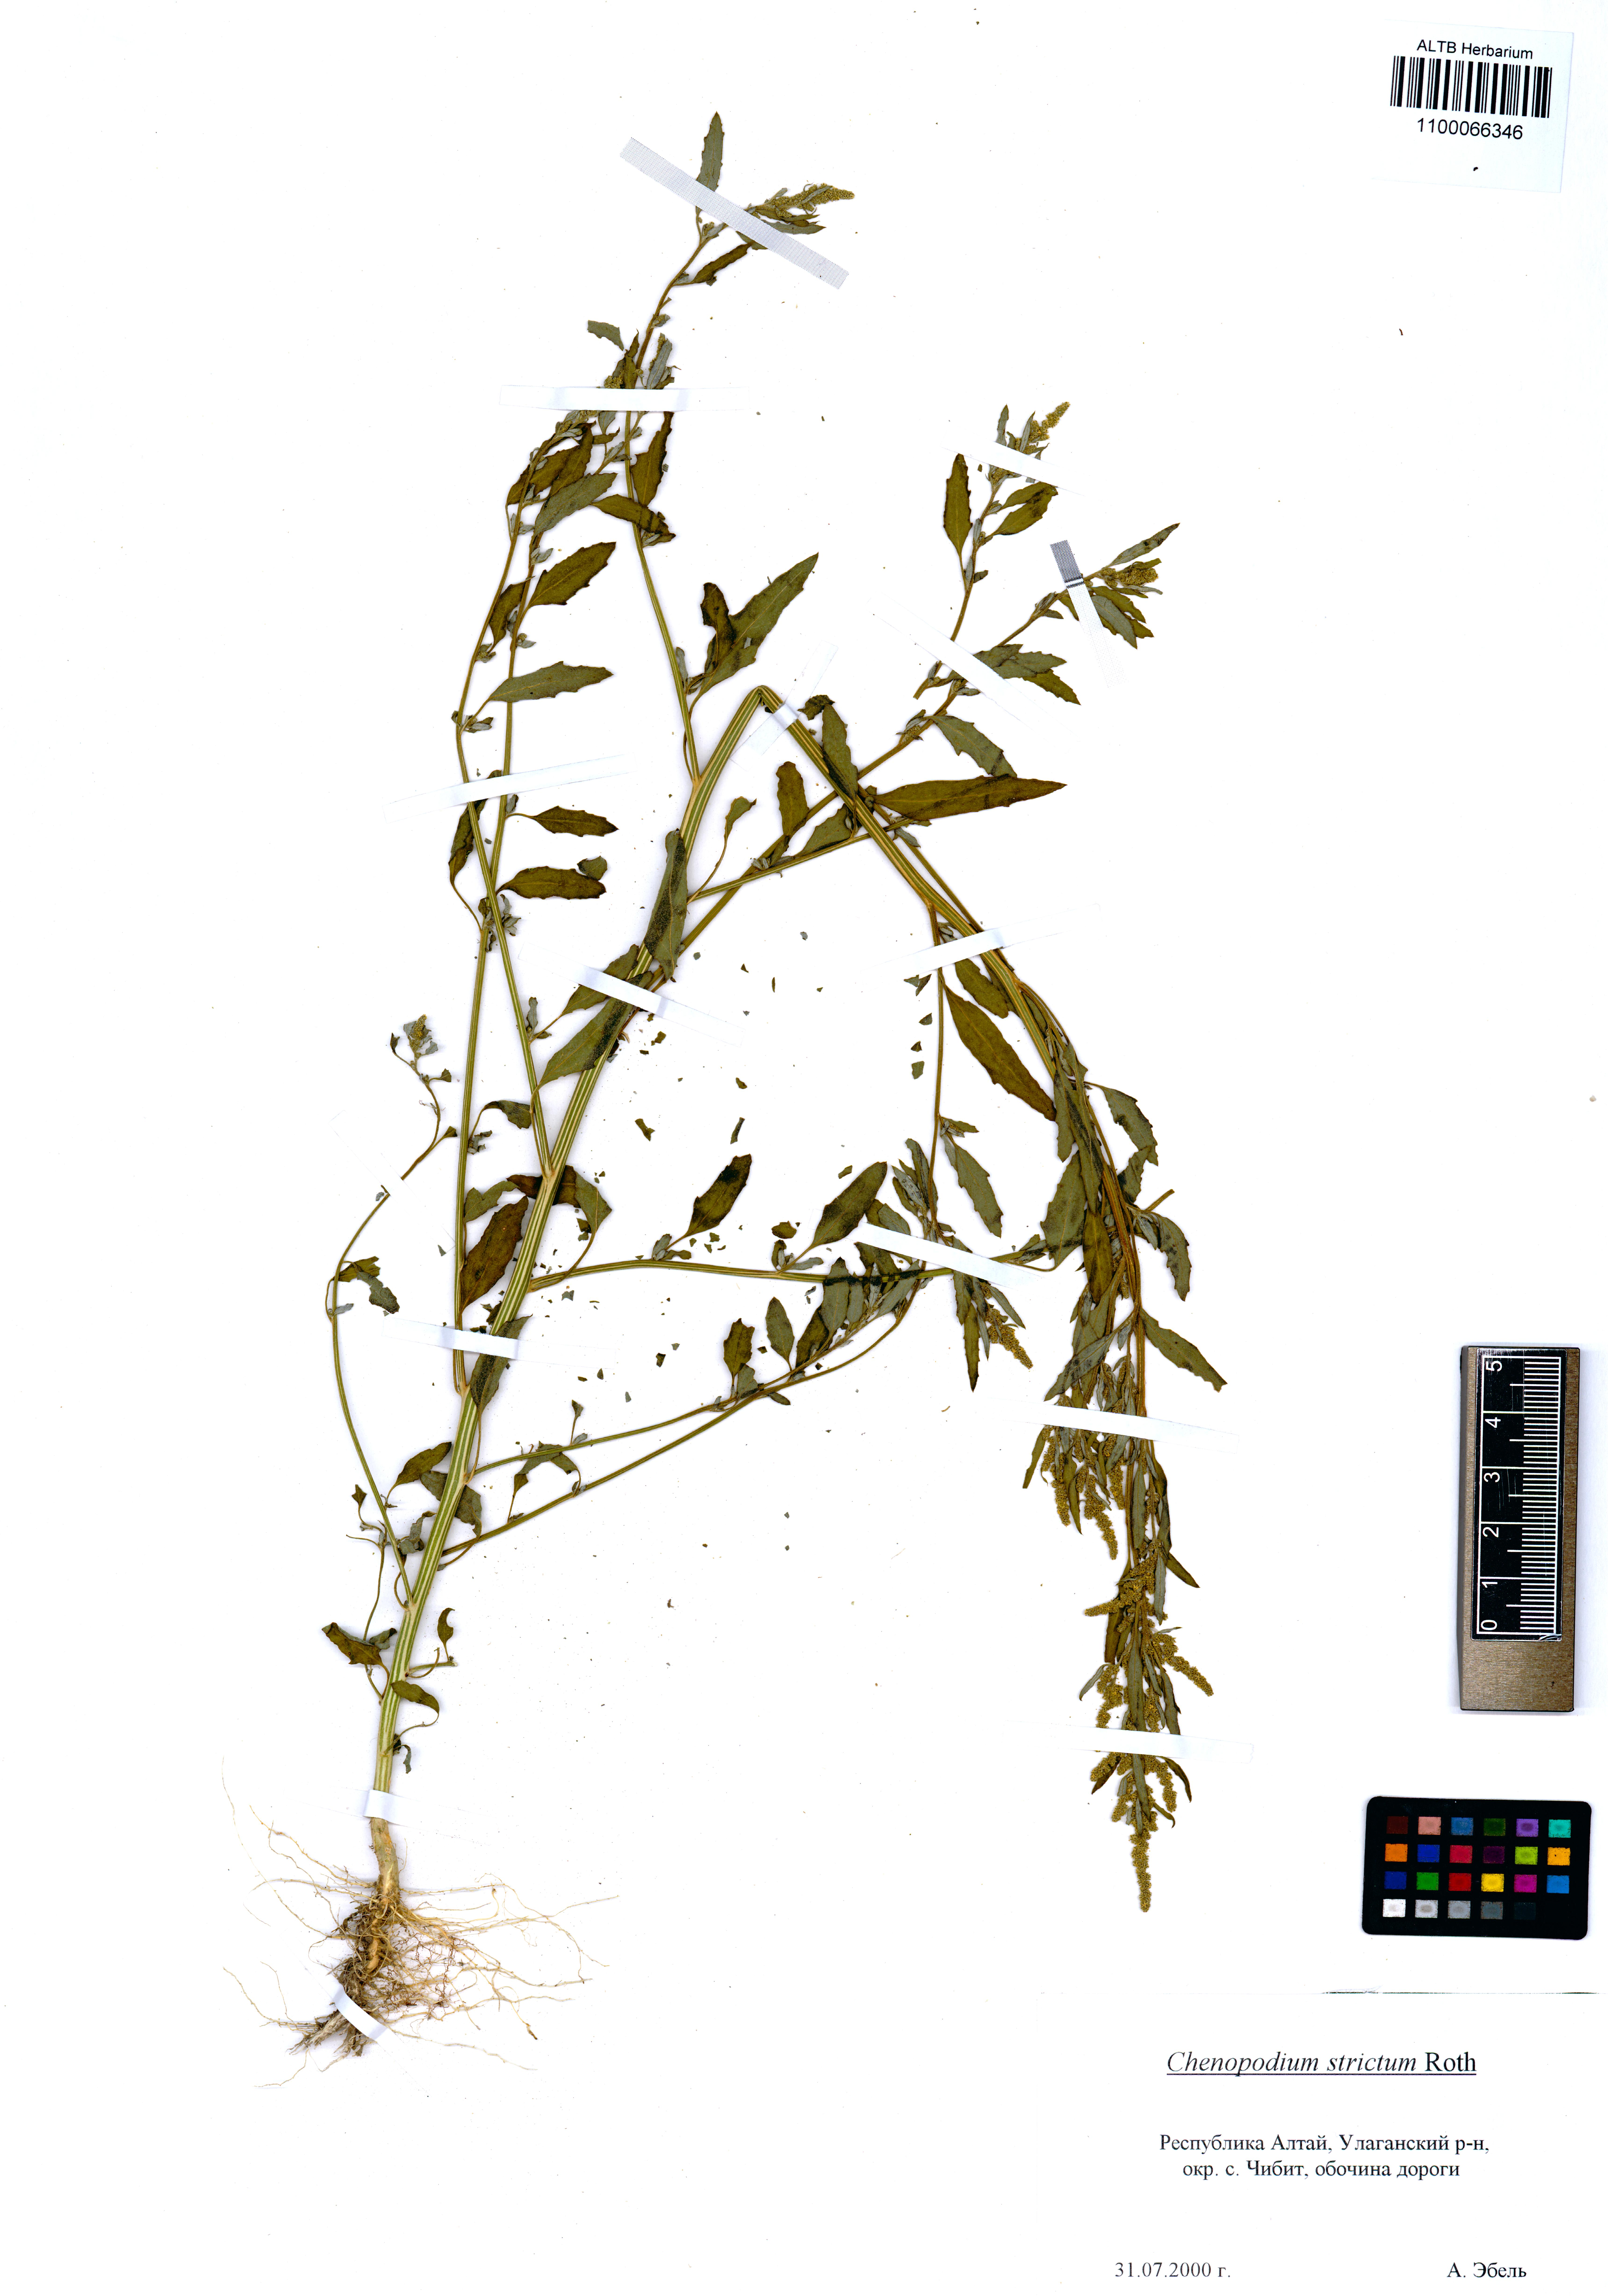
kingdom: Plantae
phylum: Tracheophyta
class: Magnoliopsida
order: Caryophyllales
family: Amaranthaceae
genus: Chenopodium
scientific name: Chenopodium album
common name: Fat-hen
